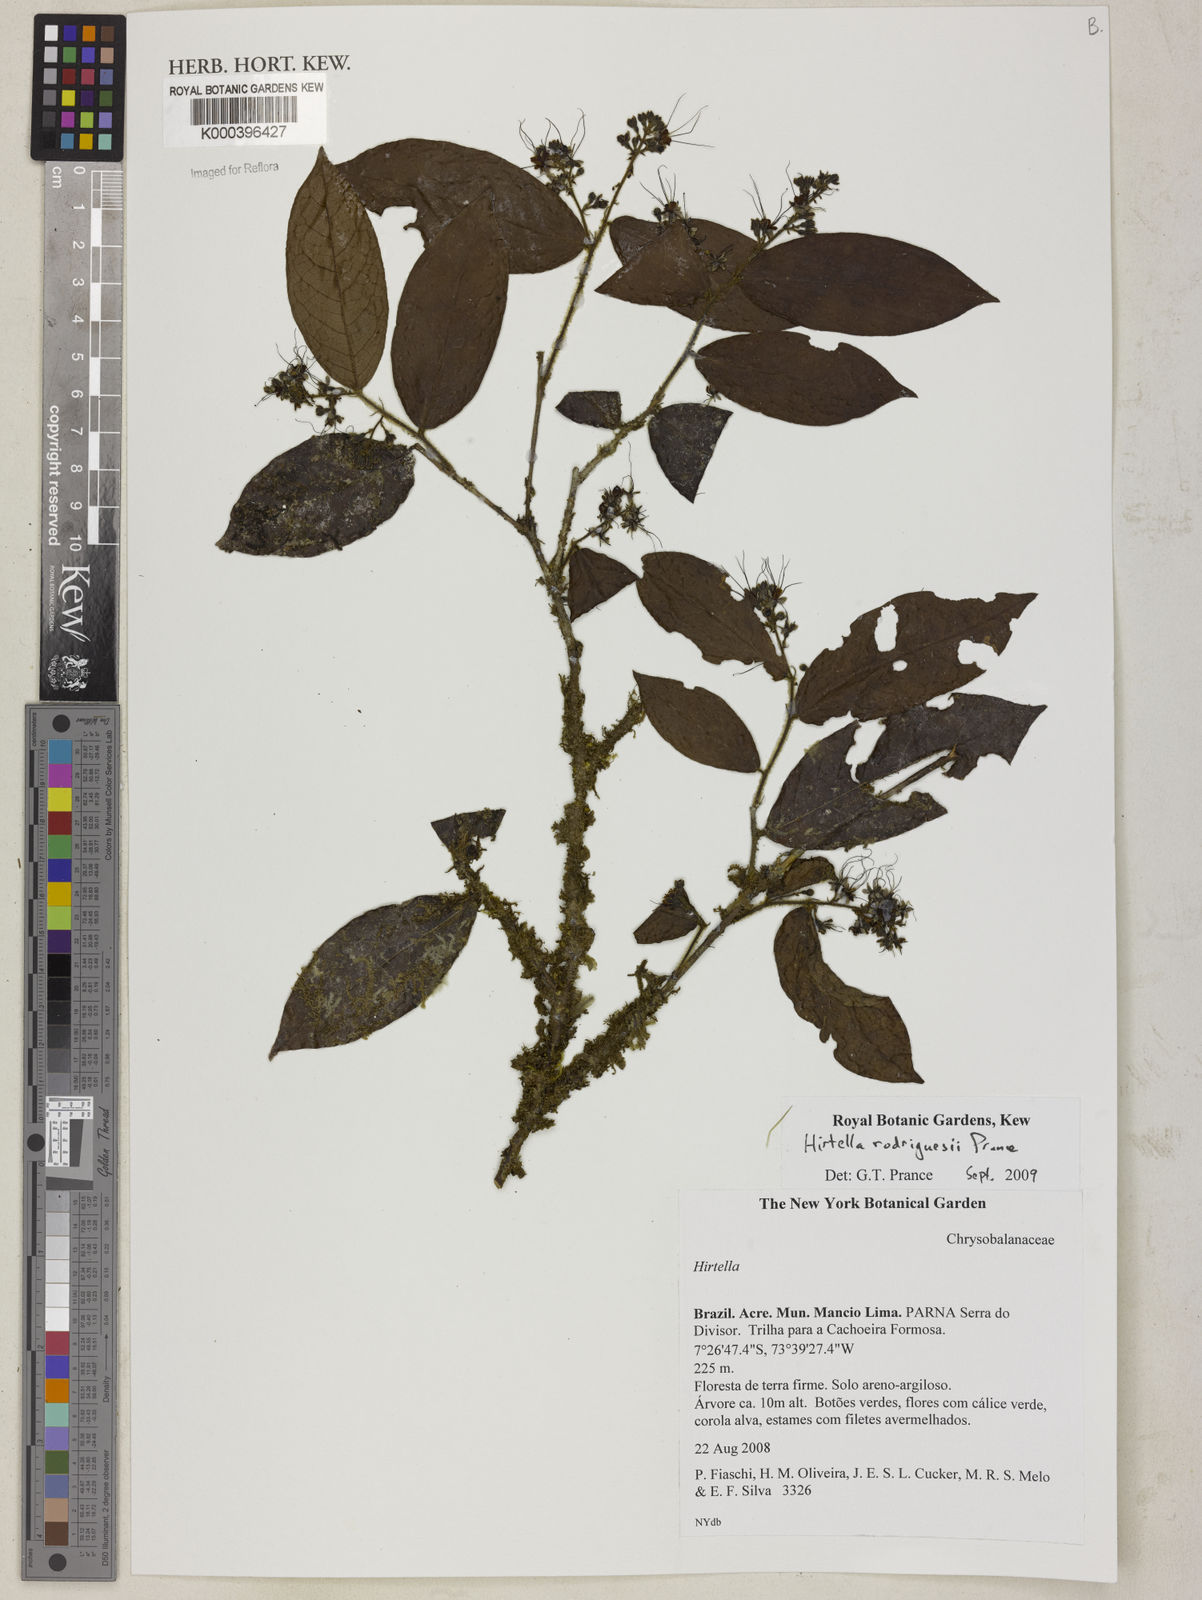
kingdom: Plantae
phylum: Tracheophyta
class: Magnoliopsida
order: Malpighiales
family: Chrysobalanaceae
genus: Hirtella
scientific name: Hirtella rodriguesii
